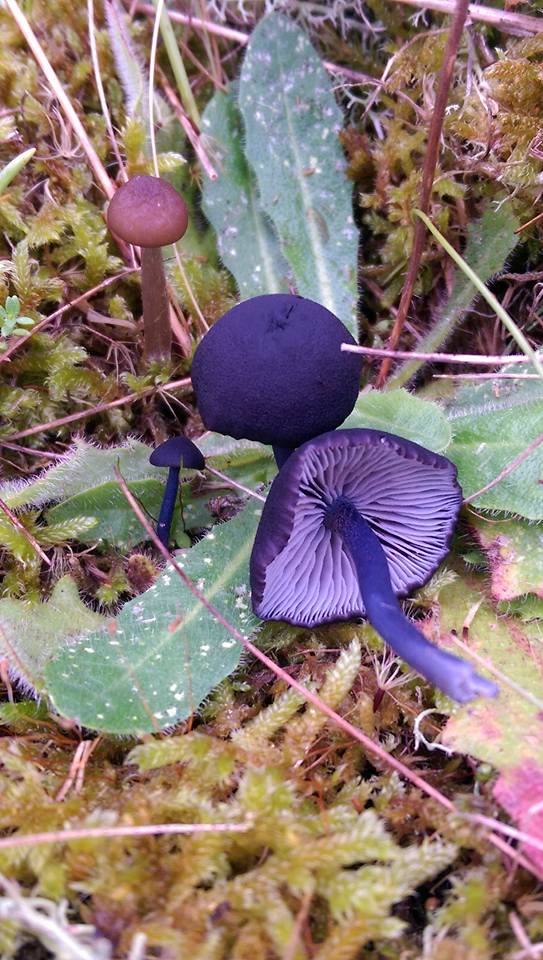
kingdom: Fungi
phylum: Basidiomycota
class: Agaricomycetes
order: Agaricales
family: Entolomataceae
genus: Entoloma
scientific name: Entoloma chalybeum
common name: blåbladet rødblad
